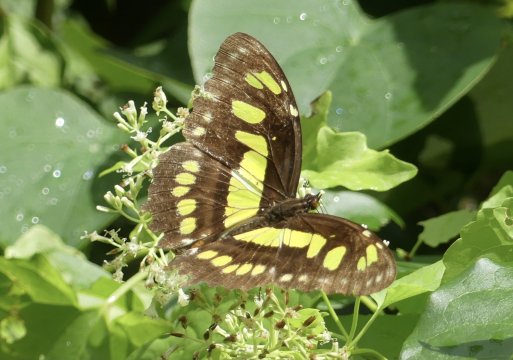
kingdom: Animalia
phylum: Arthropoda
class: Insecta
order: Lepidoptera
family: Nymphalidae
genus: Siproeta
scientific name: Siproeta stelenes
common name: Malachite
